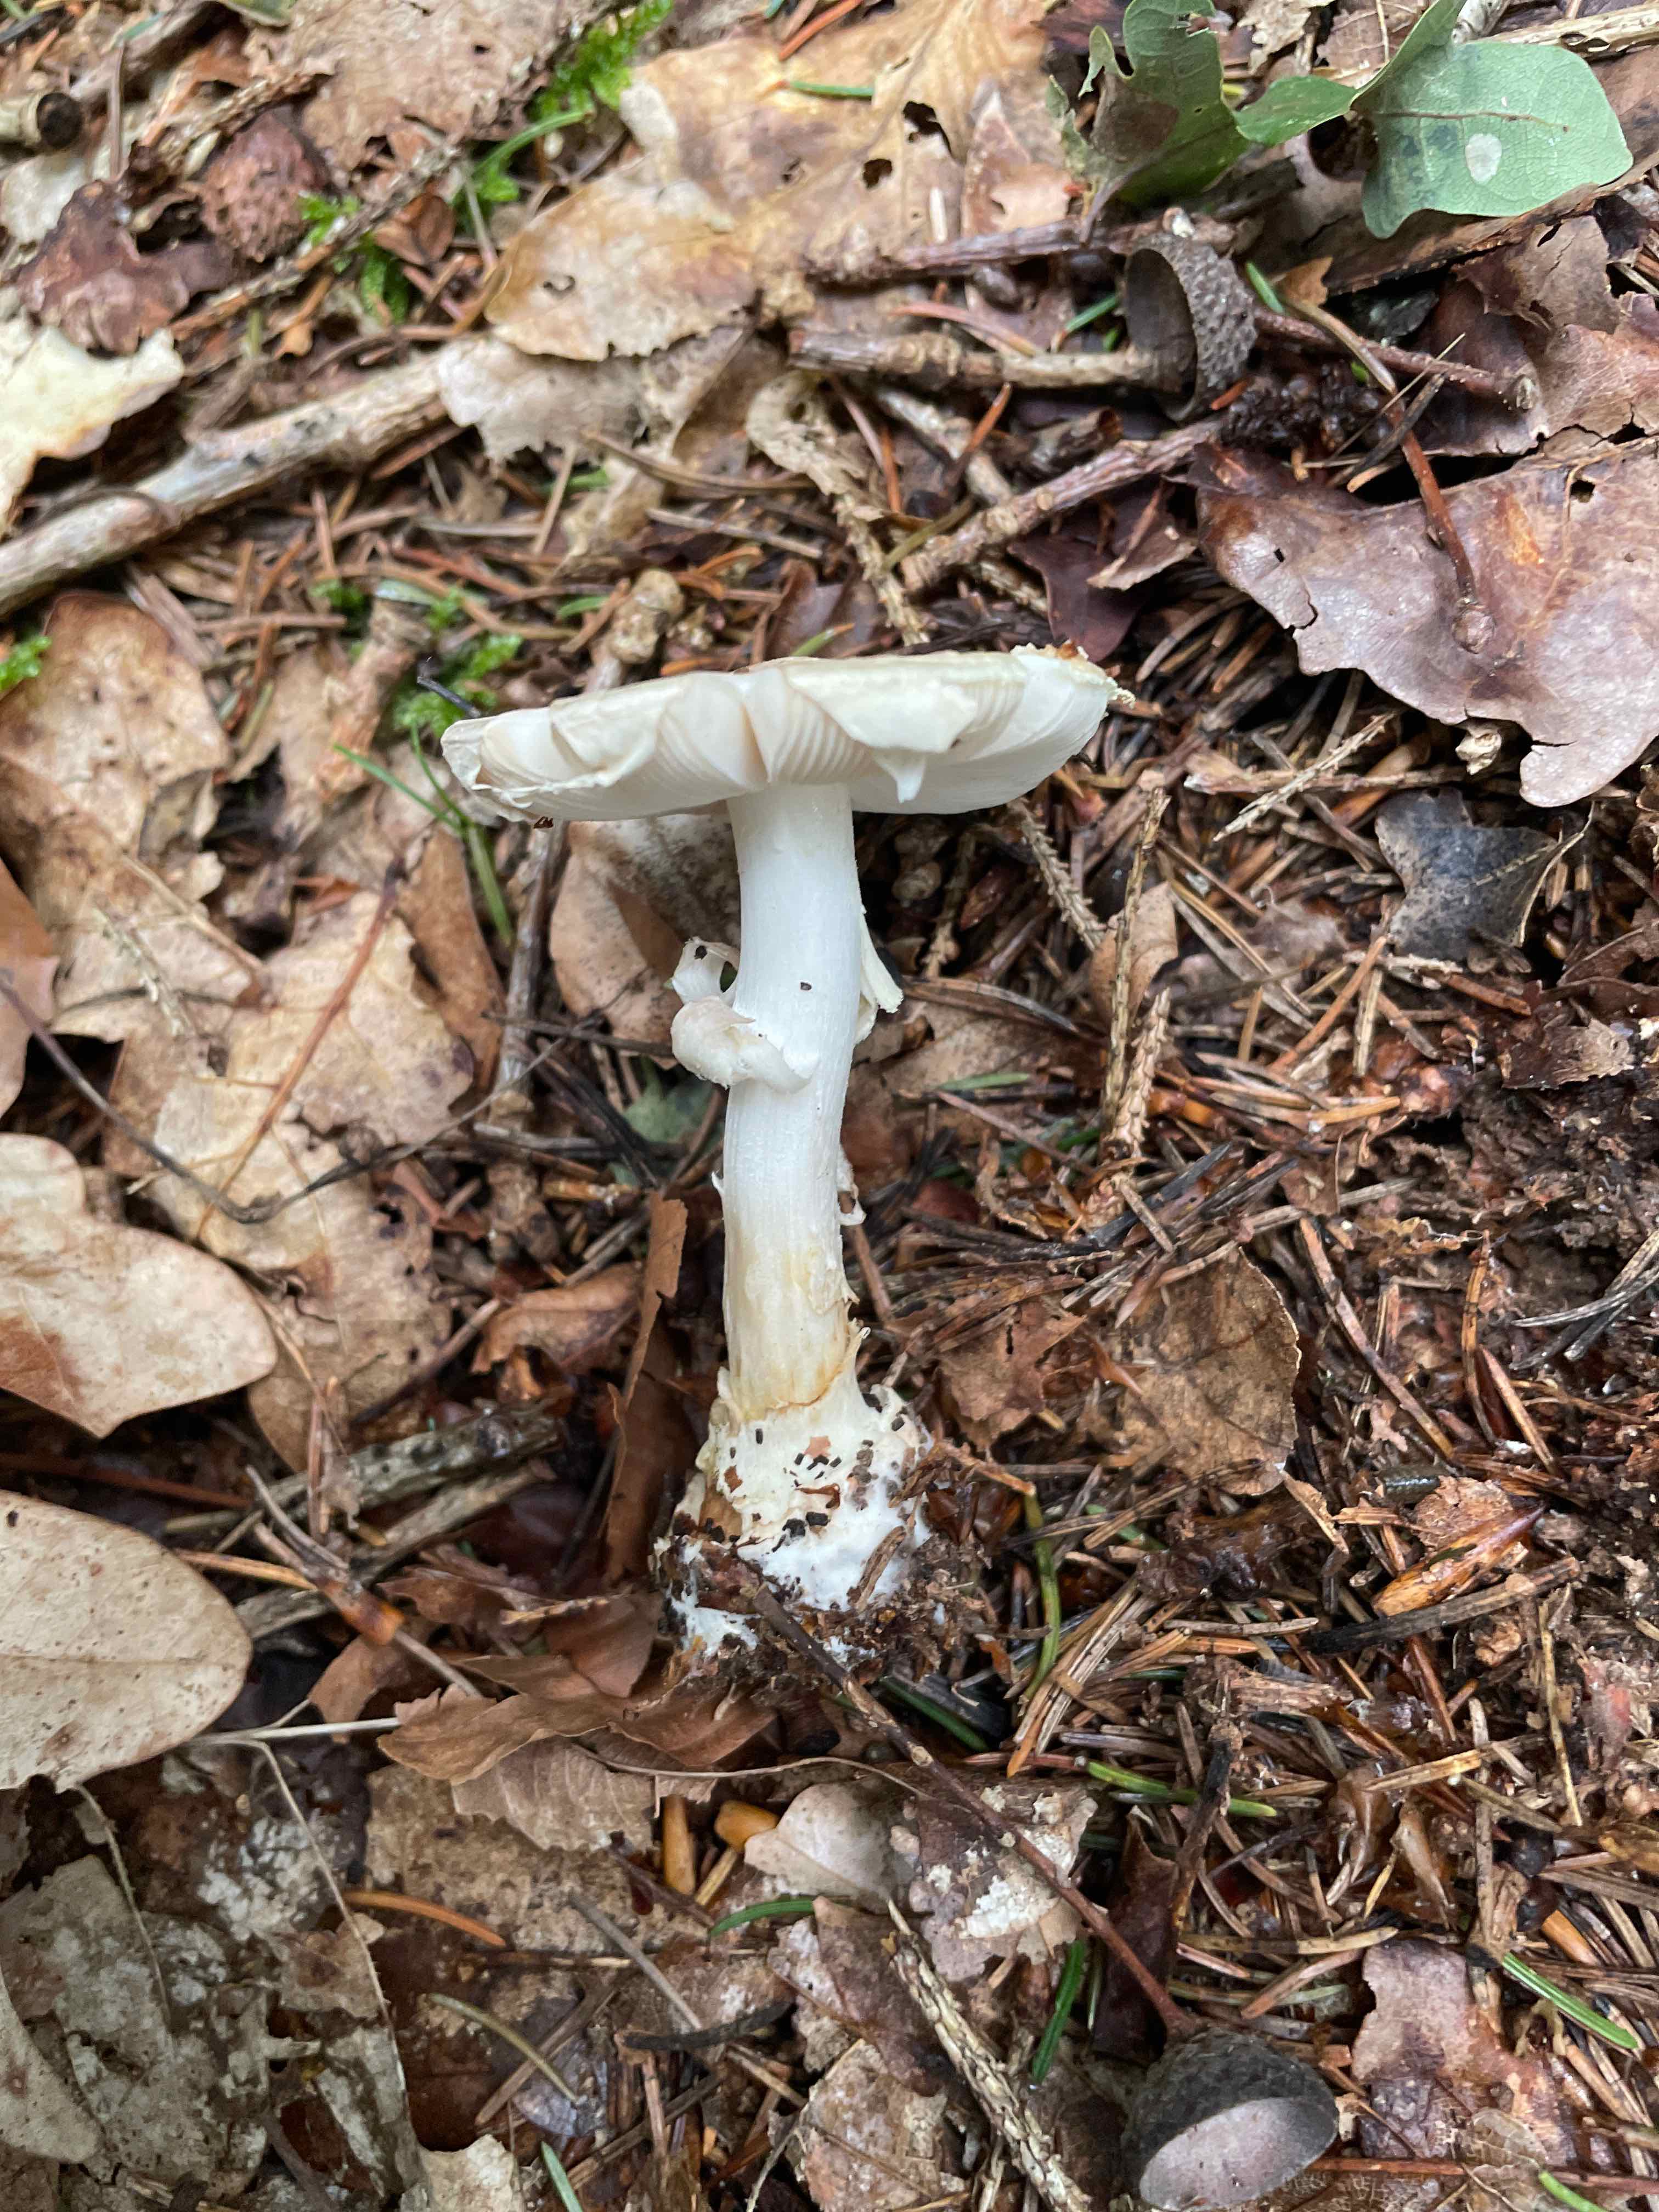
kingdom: Fungi
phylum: Basidiomycota
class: Agaricomycetes
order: Agaricales
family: Amanitaceae
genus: Amanita
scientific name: Amanita citrina
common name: kugleknoldet fluesvamp
